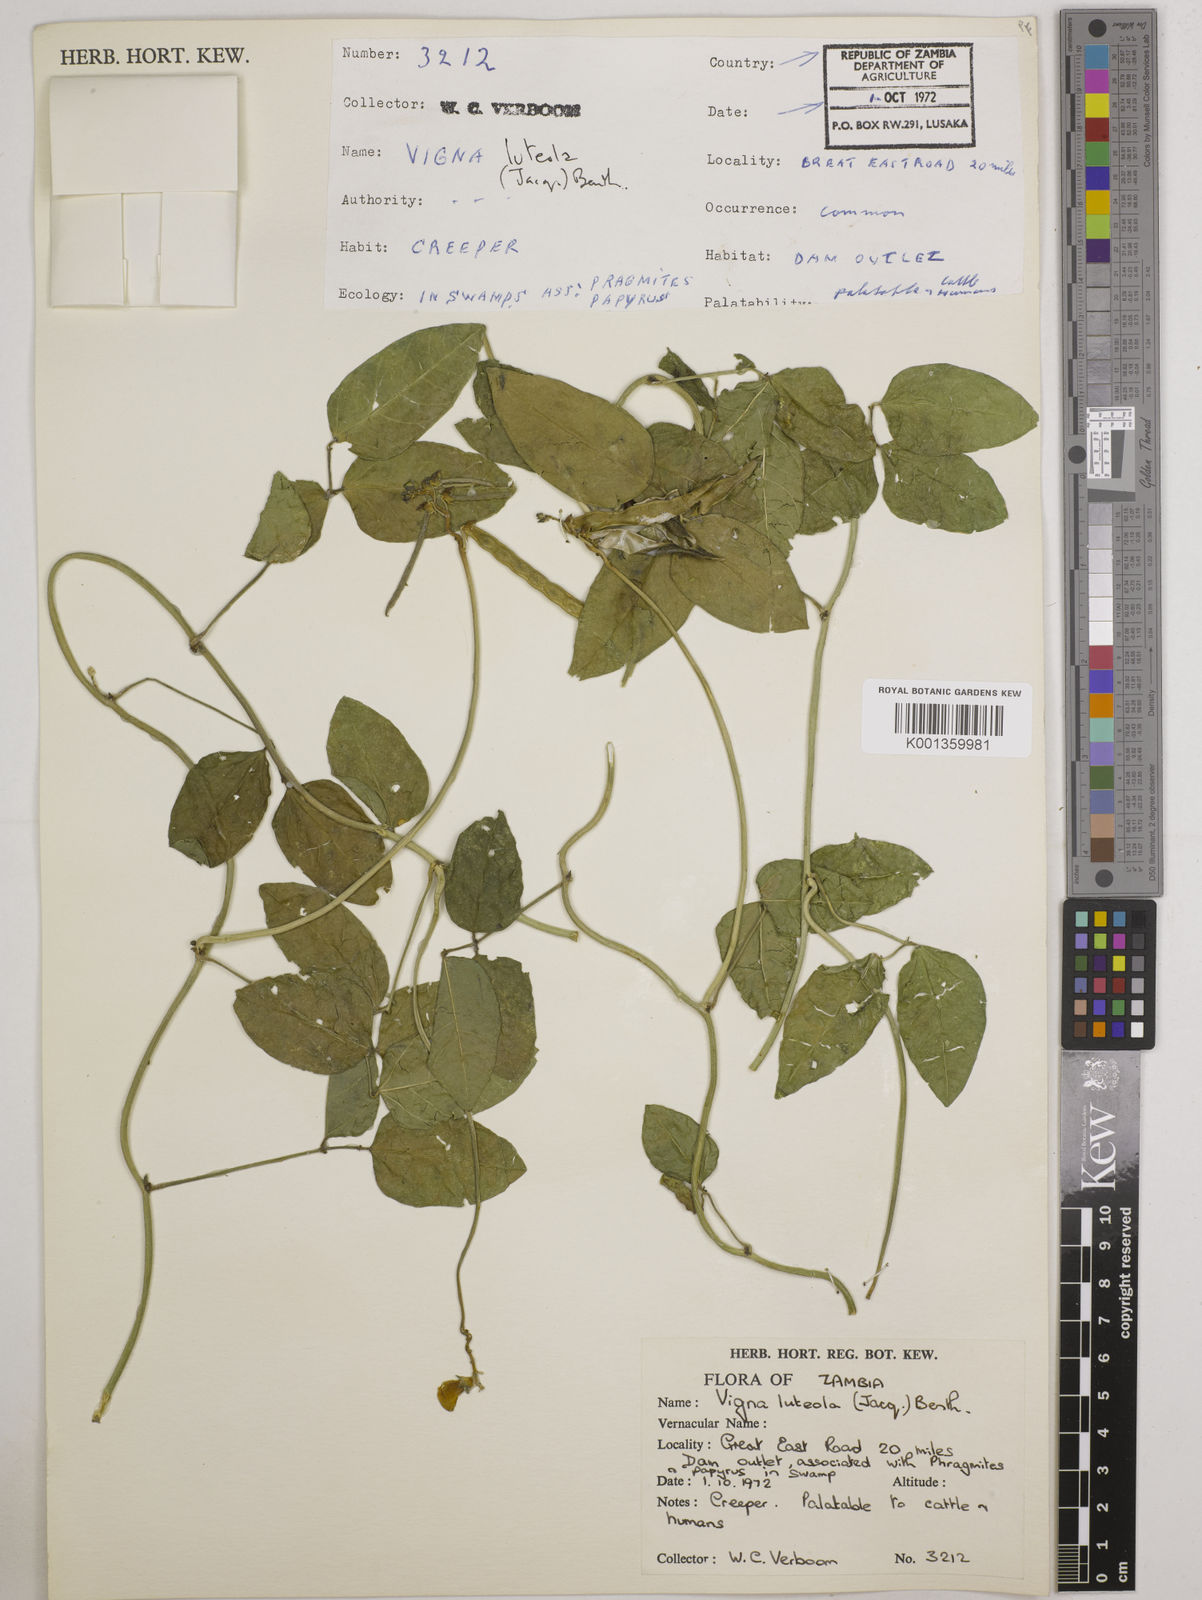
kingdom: Plantae
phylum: Tracheophyta
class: Magnoliopsida
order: Fabales
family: Fabaceae
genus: Vigna
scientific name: Vigna luteola
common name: Hairypod cowpea
